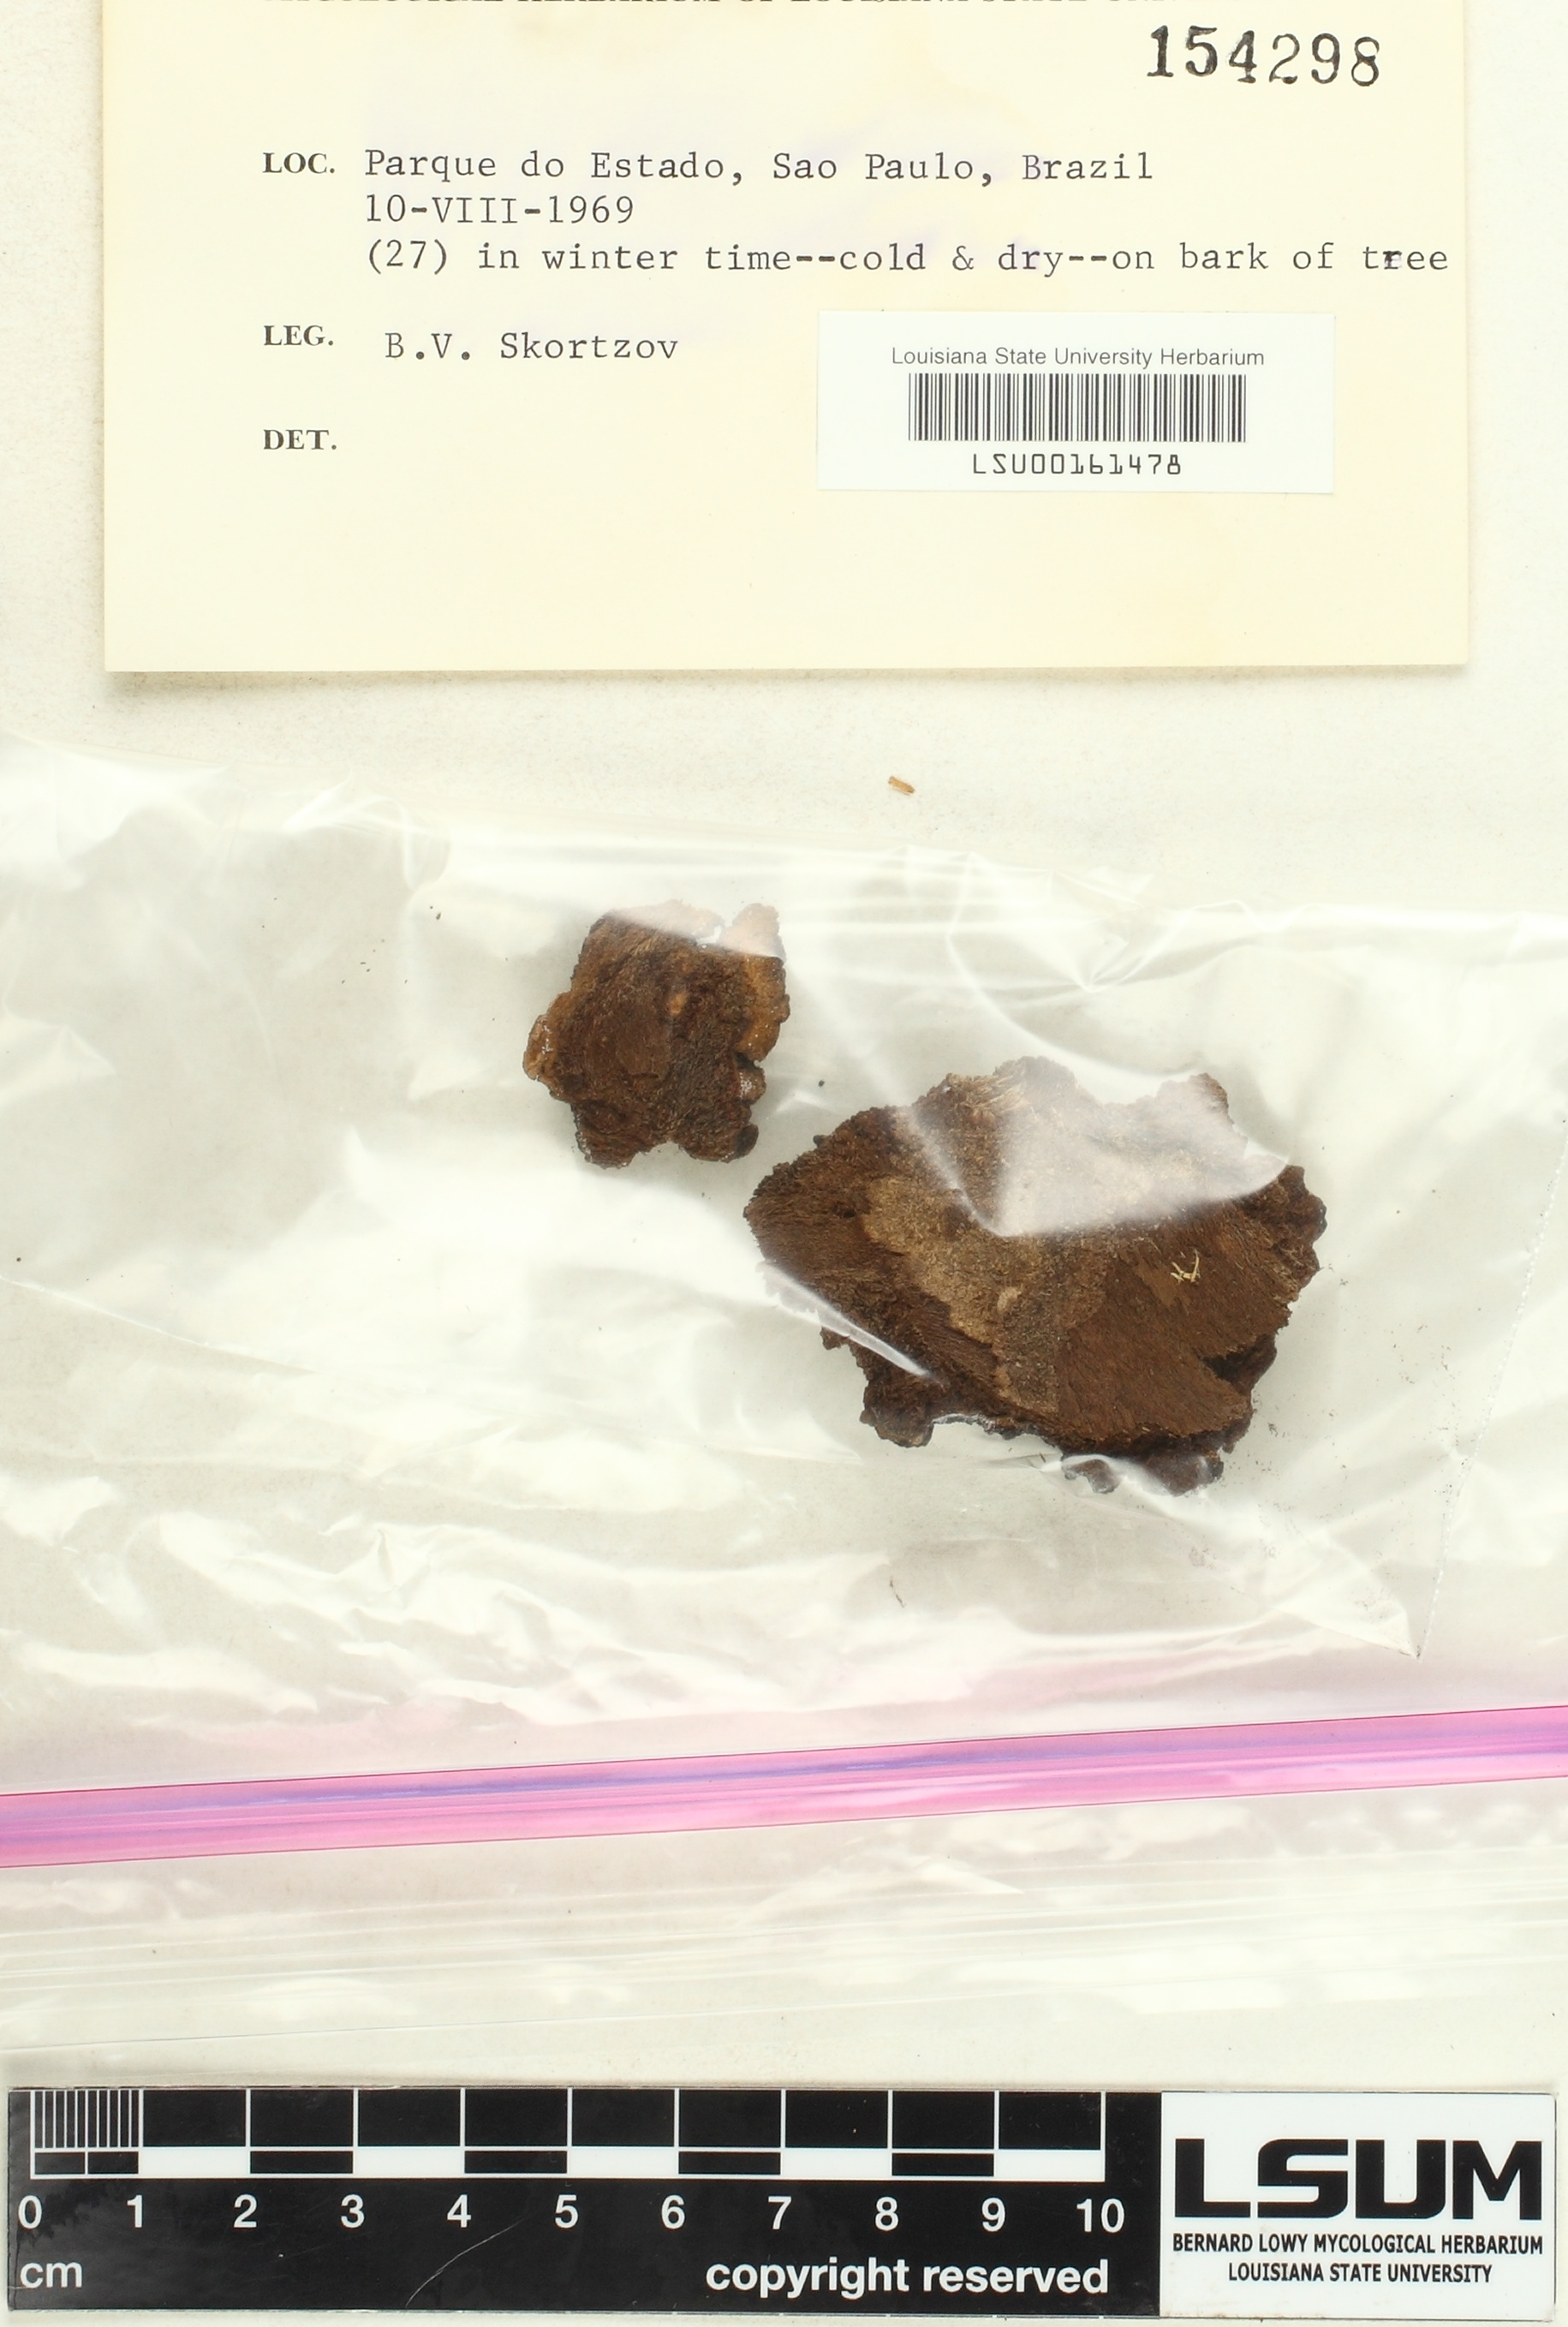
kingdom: Fungi
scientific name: Fungi
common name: Fungi
